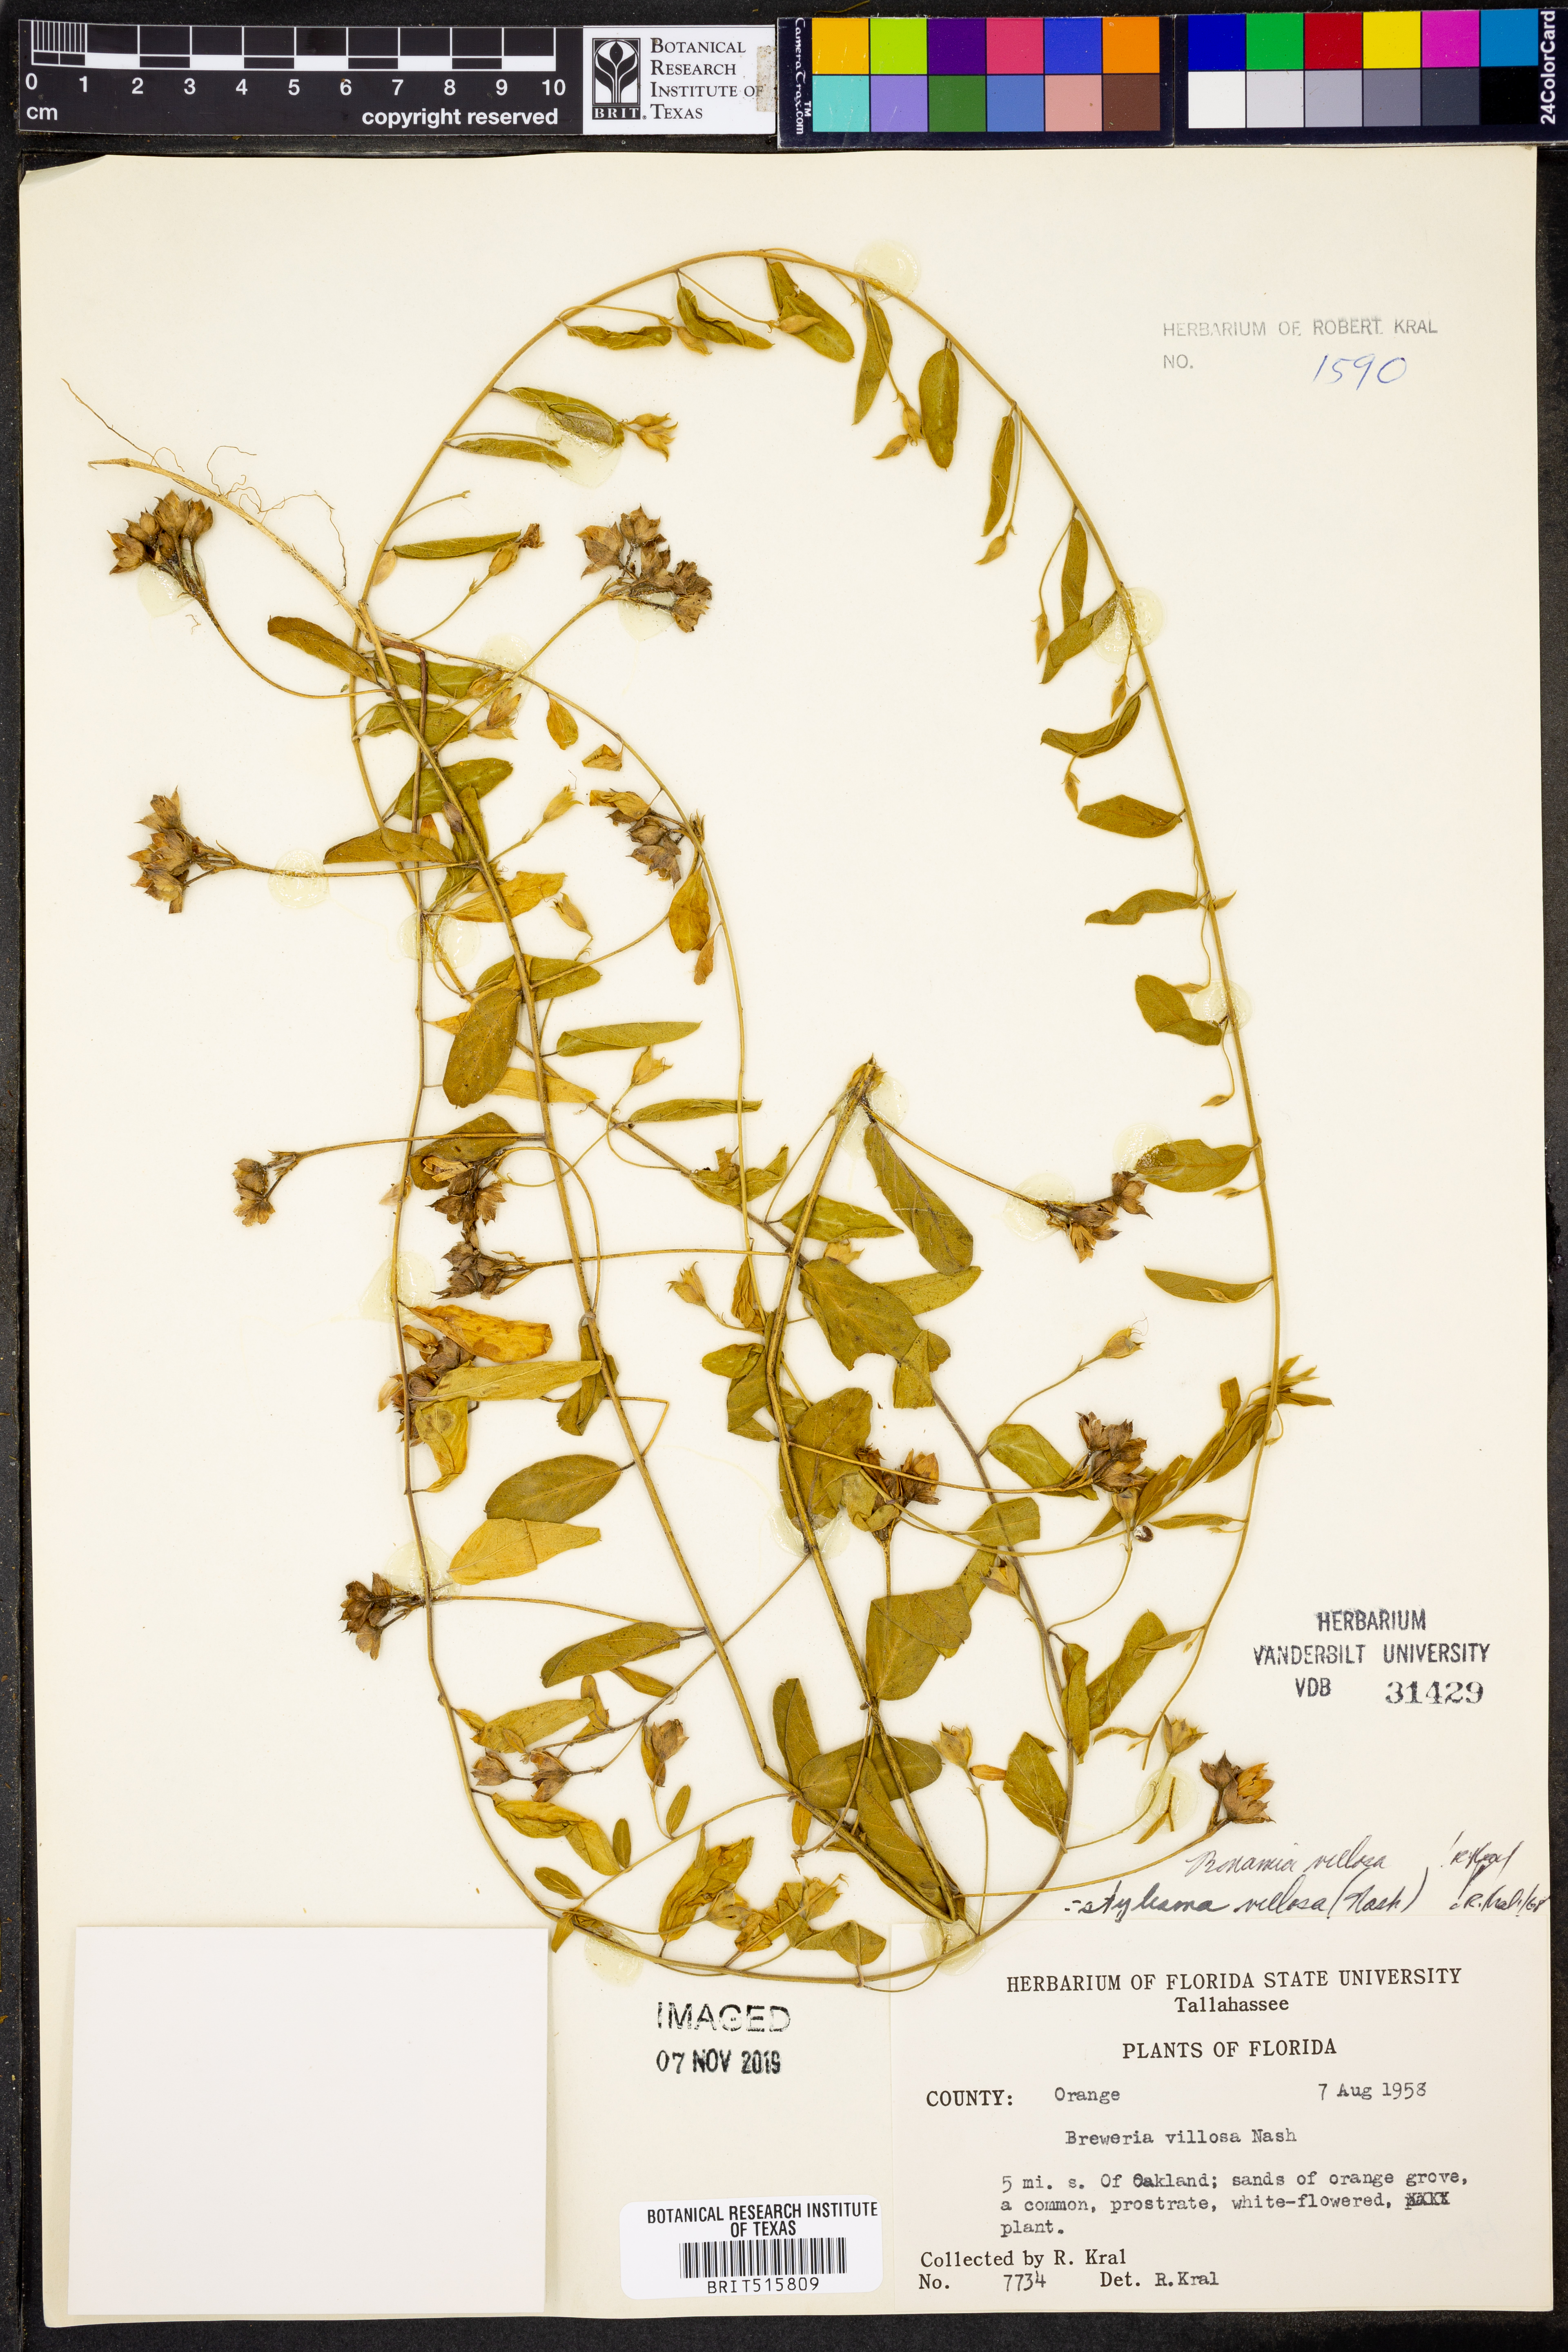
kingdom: Plantae
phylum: Tracheophyta
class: Magnoliopsida
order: Solanales
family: Convolvulaceae
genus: Stylisma
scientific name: Stylisma villosa
